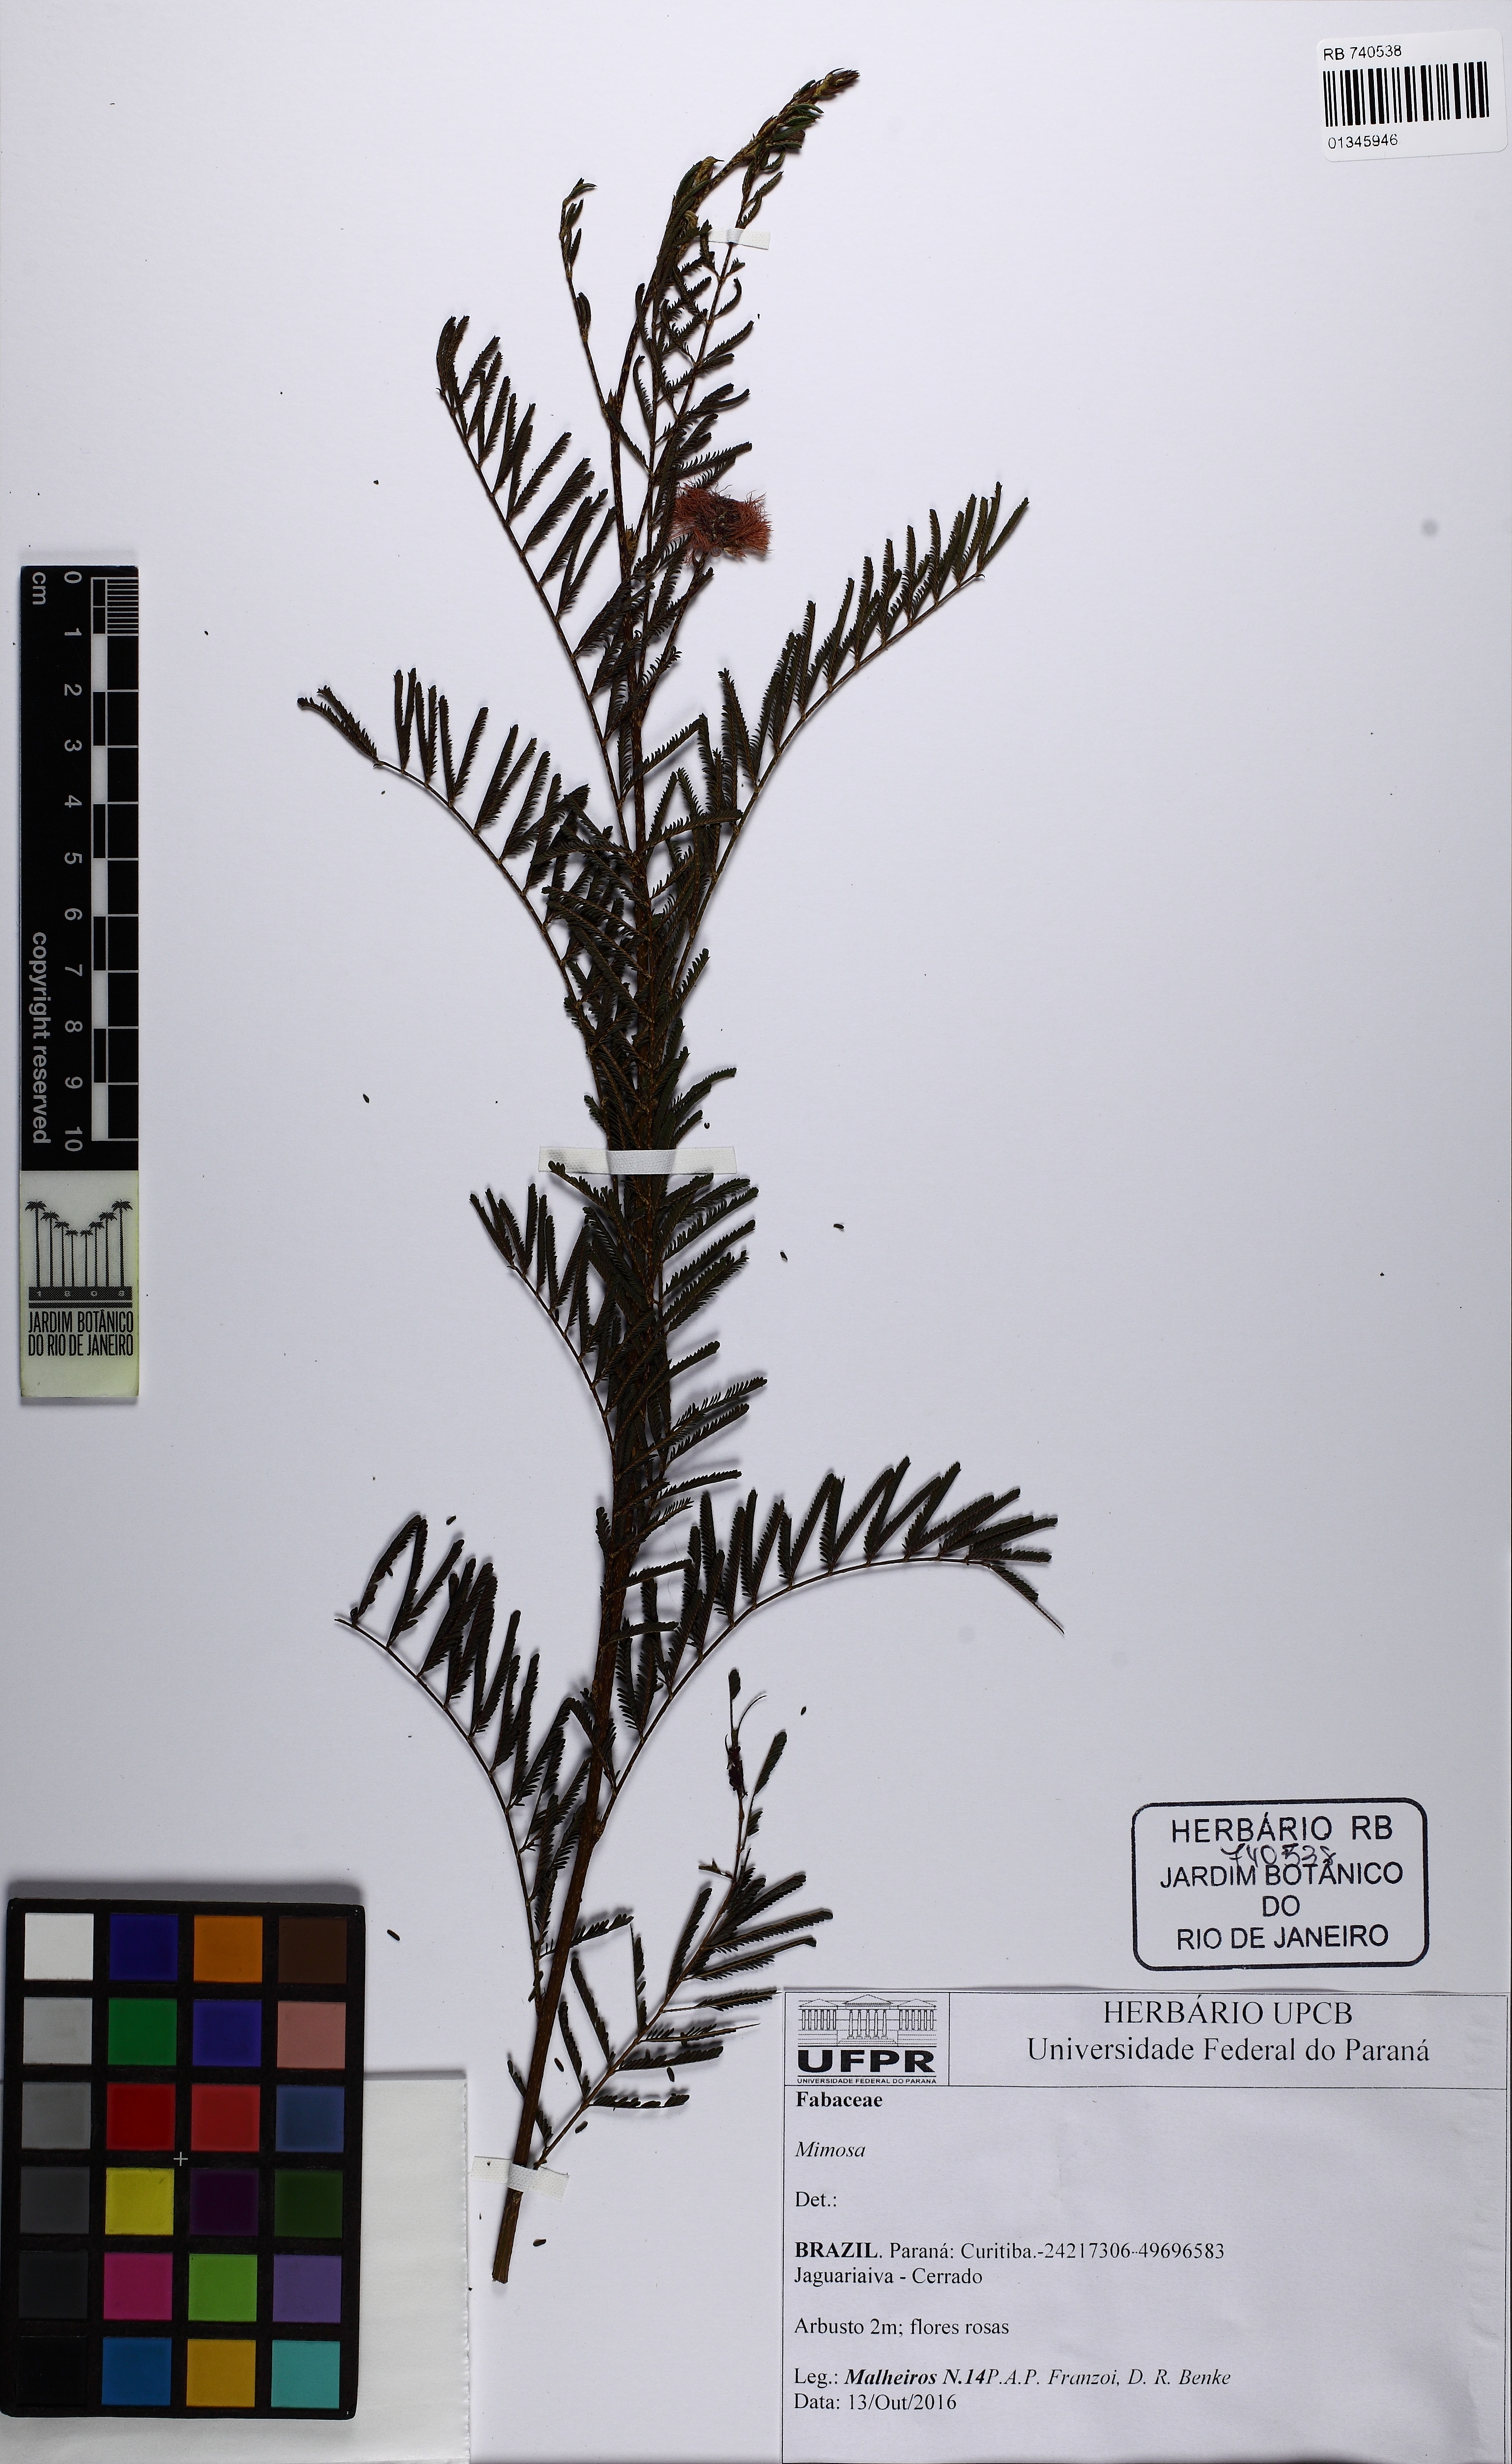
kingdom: Plantae
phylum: Tracheophyta
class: Magnoliopsida
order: Fabales
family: Fabaceae
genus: Mimosa
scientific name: Mimosa
